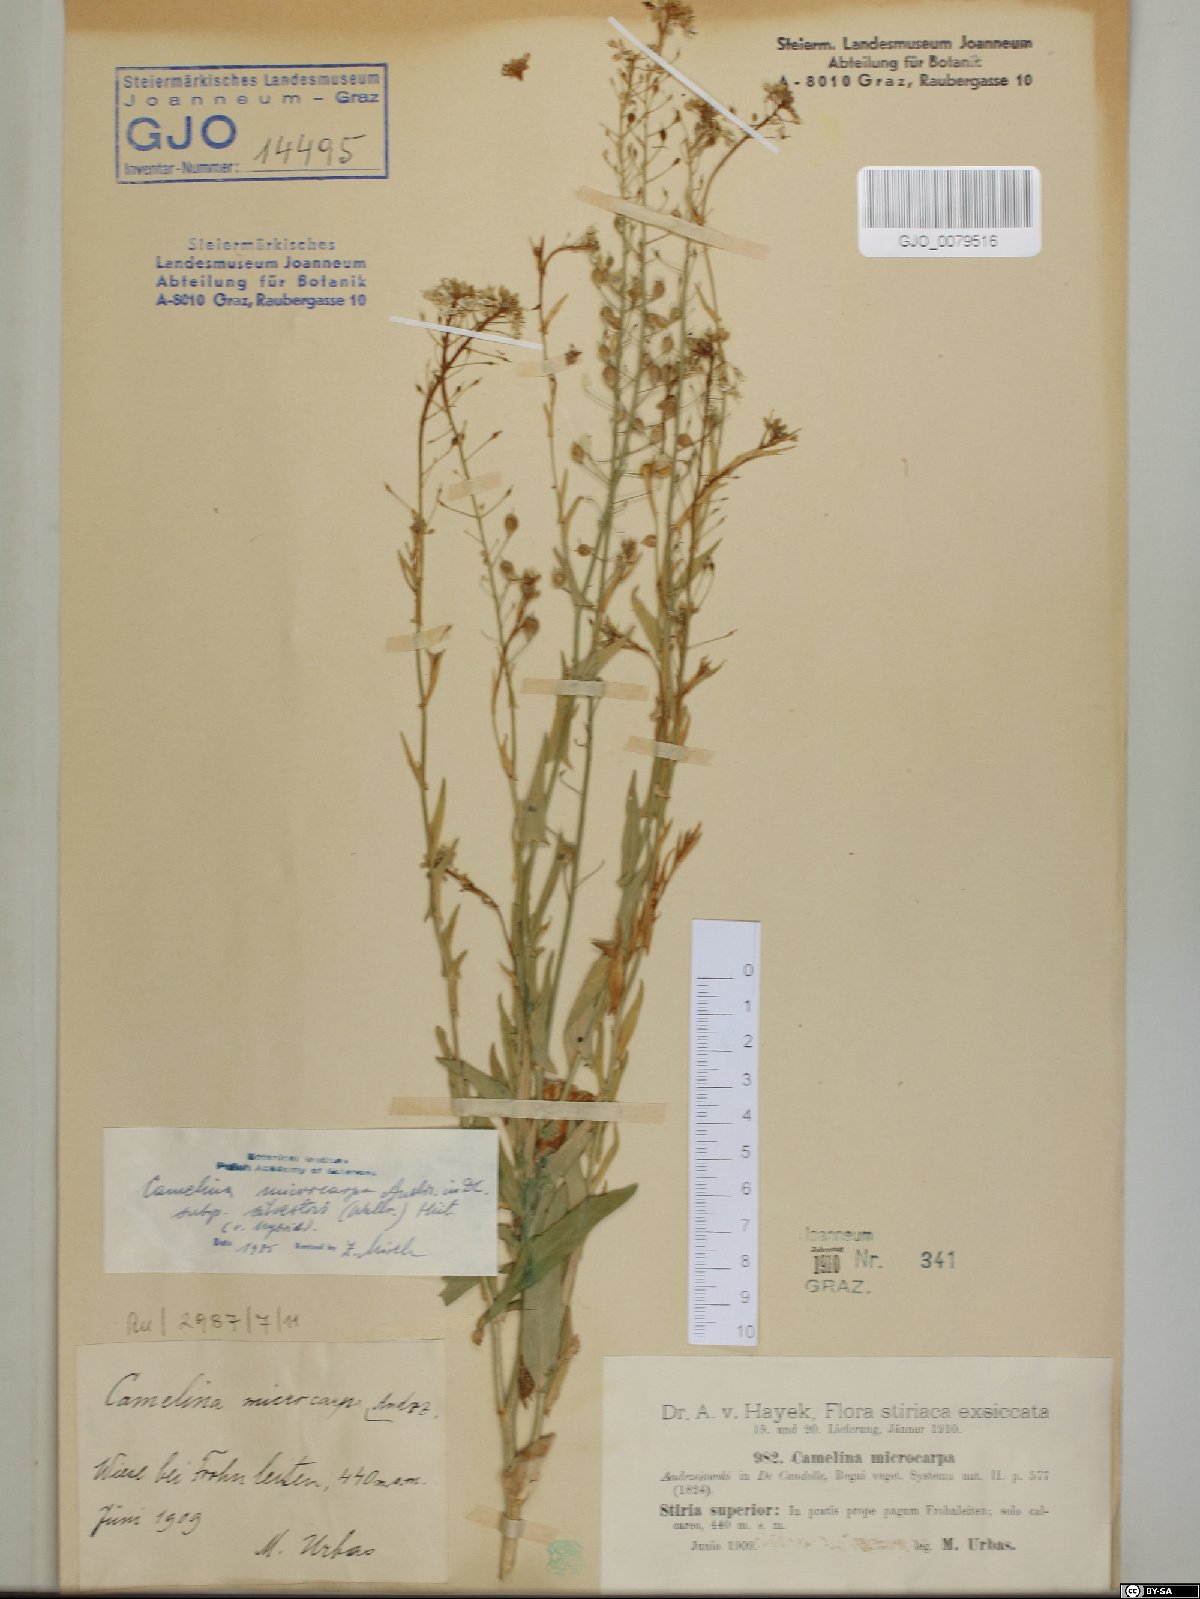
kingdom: Plantae
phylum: Tracheophyta
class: Magnoliopsida
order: Brassicales
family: Brassicaceae
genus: Camelina
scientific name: Camelina microcarpa
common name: Lesser gold-of-pleasure
